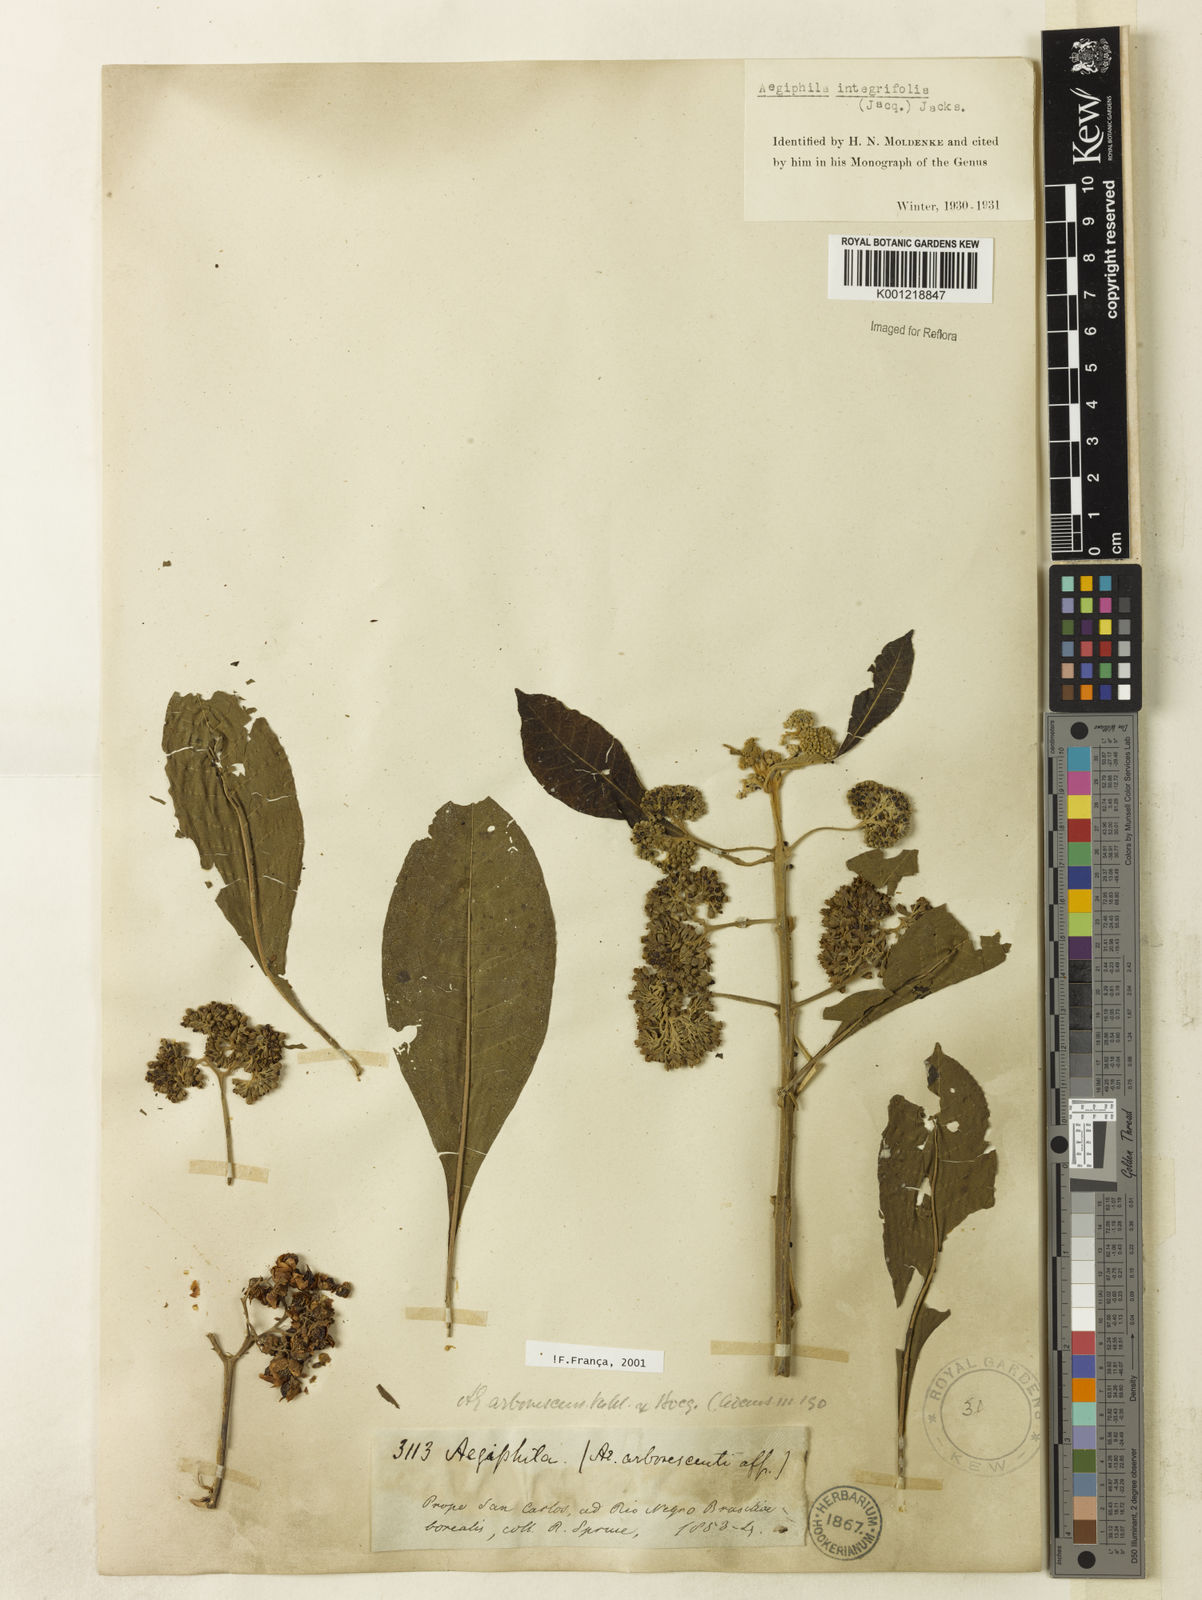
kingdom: Plantae
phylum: Tracheophyta
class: Magnoliopsida
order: Lamiales
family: Lamiaceae
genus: Aegiphila
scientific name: Aegiphila
